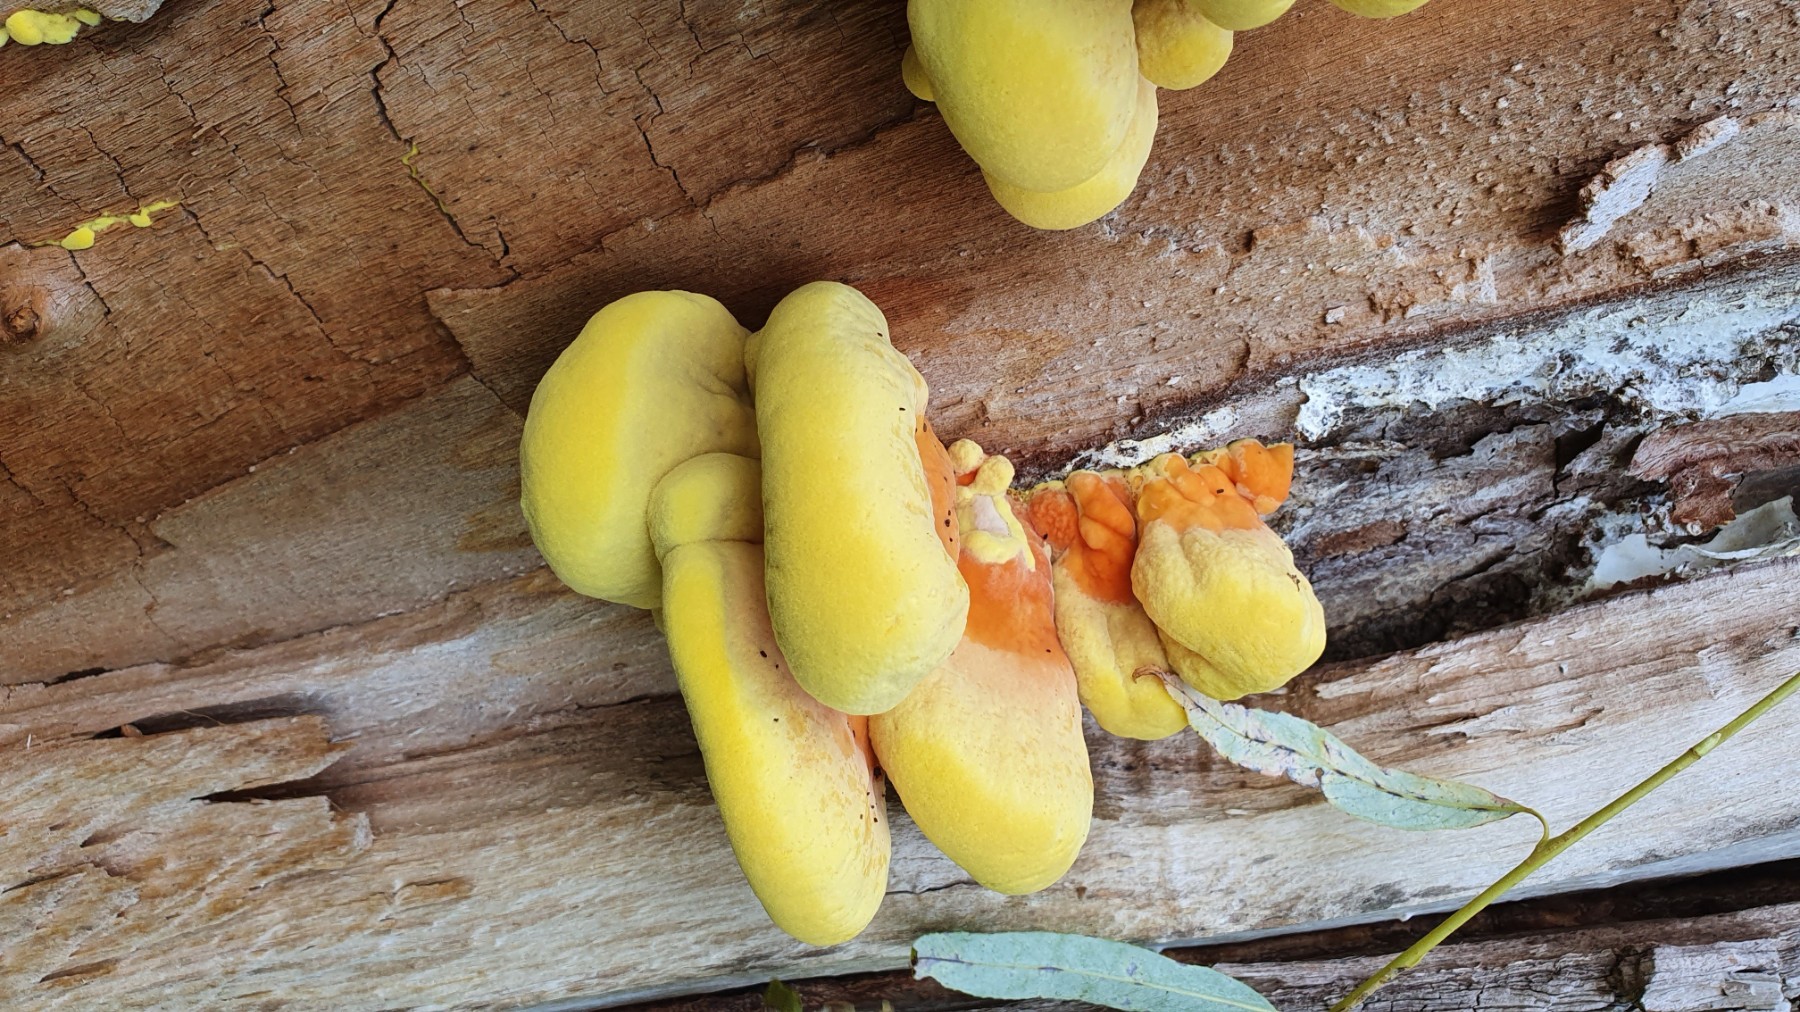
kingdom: Fungi
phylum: Basidiomycota
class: Agaricomycetes
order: Polyporales
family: Laetiporaceae
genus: Laetiporus
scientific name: Laetiporus sulphureus
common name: svovlporesvamp
